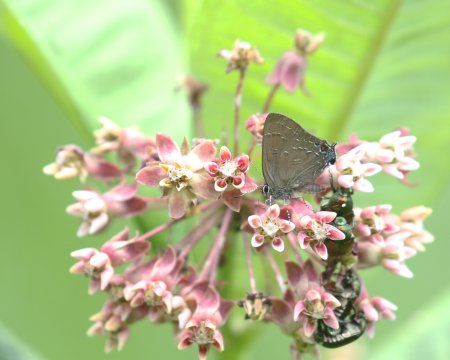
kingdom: Animalia
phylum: Arthropoda
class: Insecta
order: Lepidoptera
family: Lycaenidae
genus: Satyrium
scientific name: Satyrium calanus
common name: Banded Hairstreak
